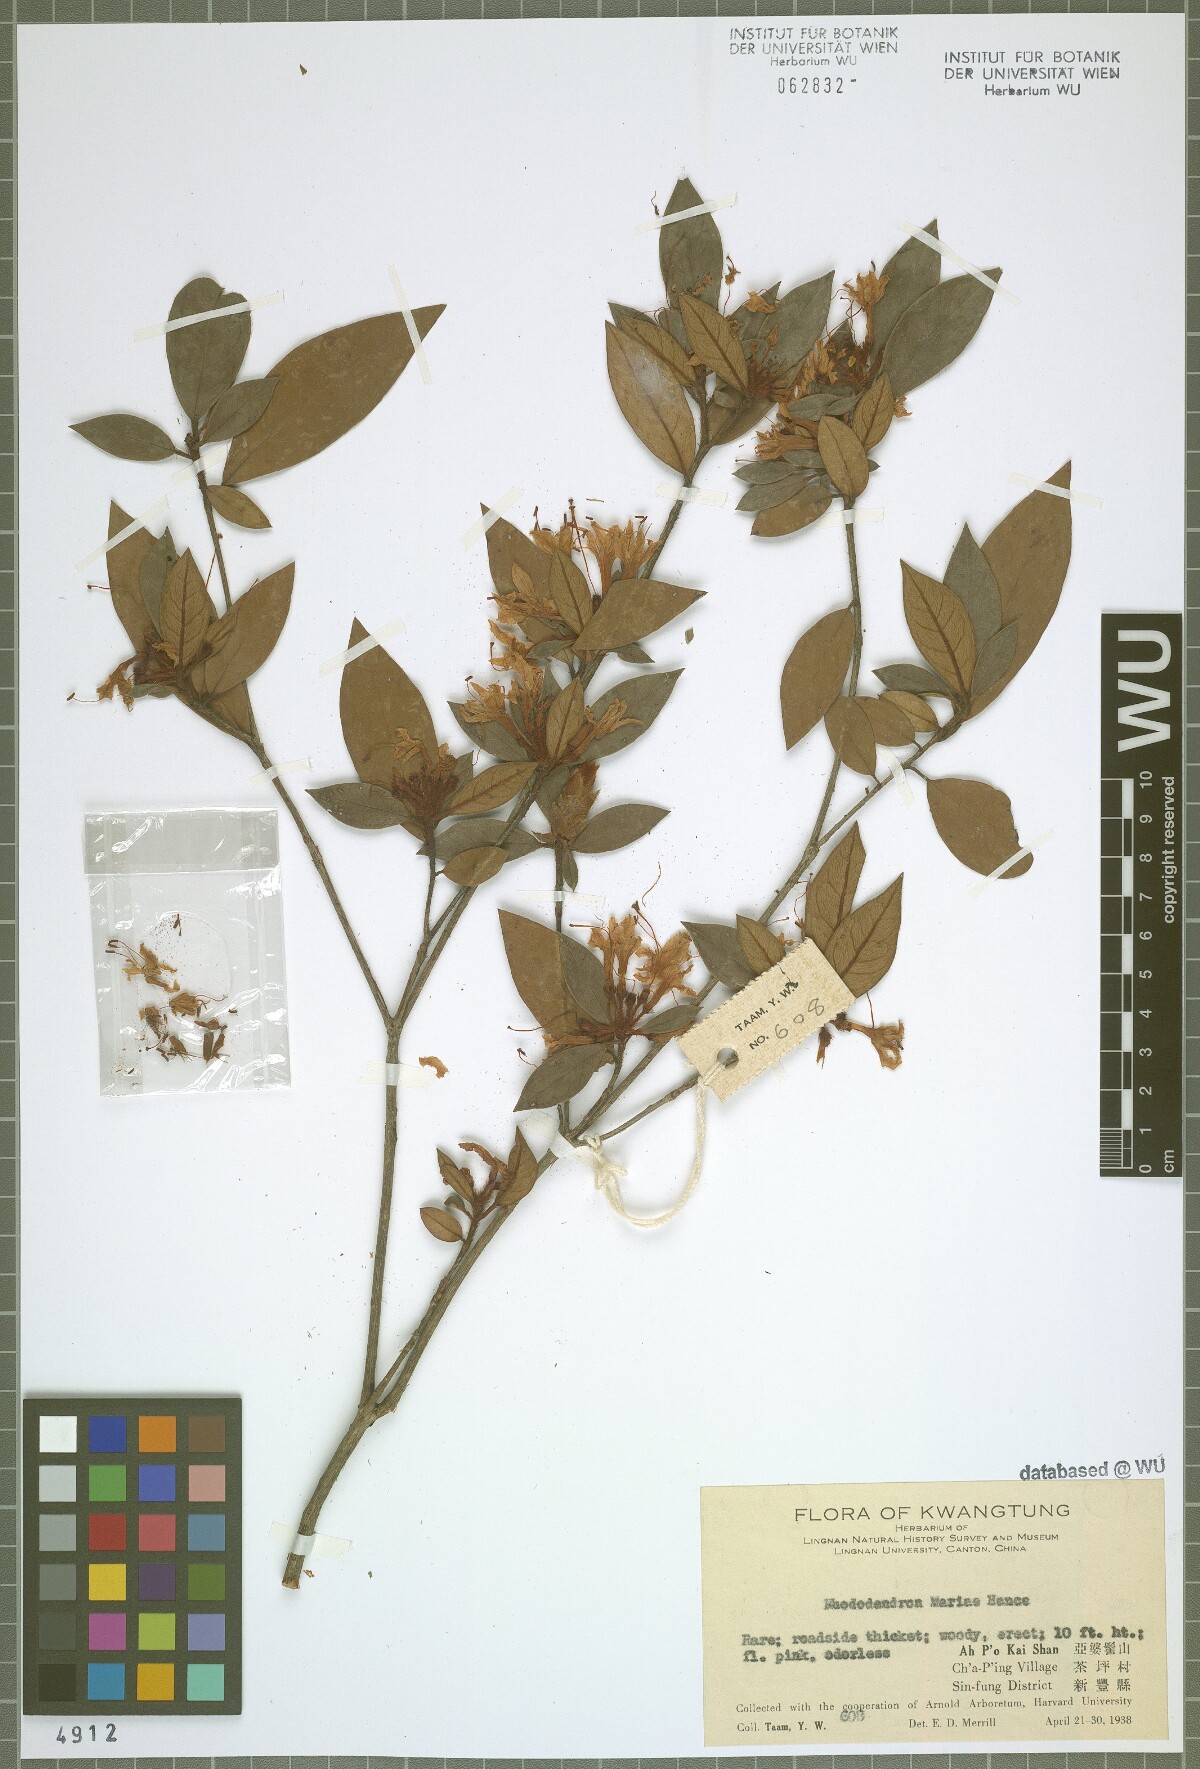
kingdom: Plantae
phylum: Tracheophyta
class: Magnoliopsida
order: Ericales
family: Ericaceae
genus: Rhododendron
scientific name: Rhododendron mariae
